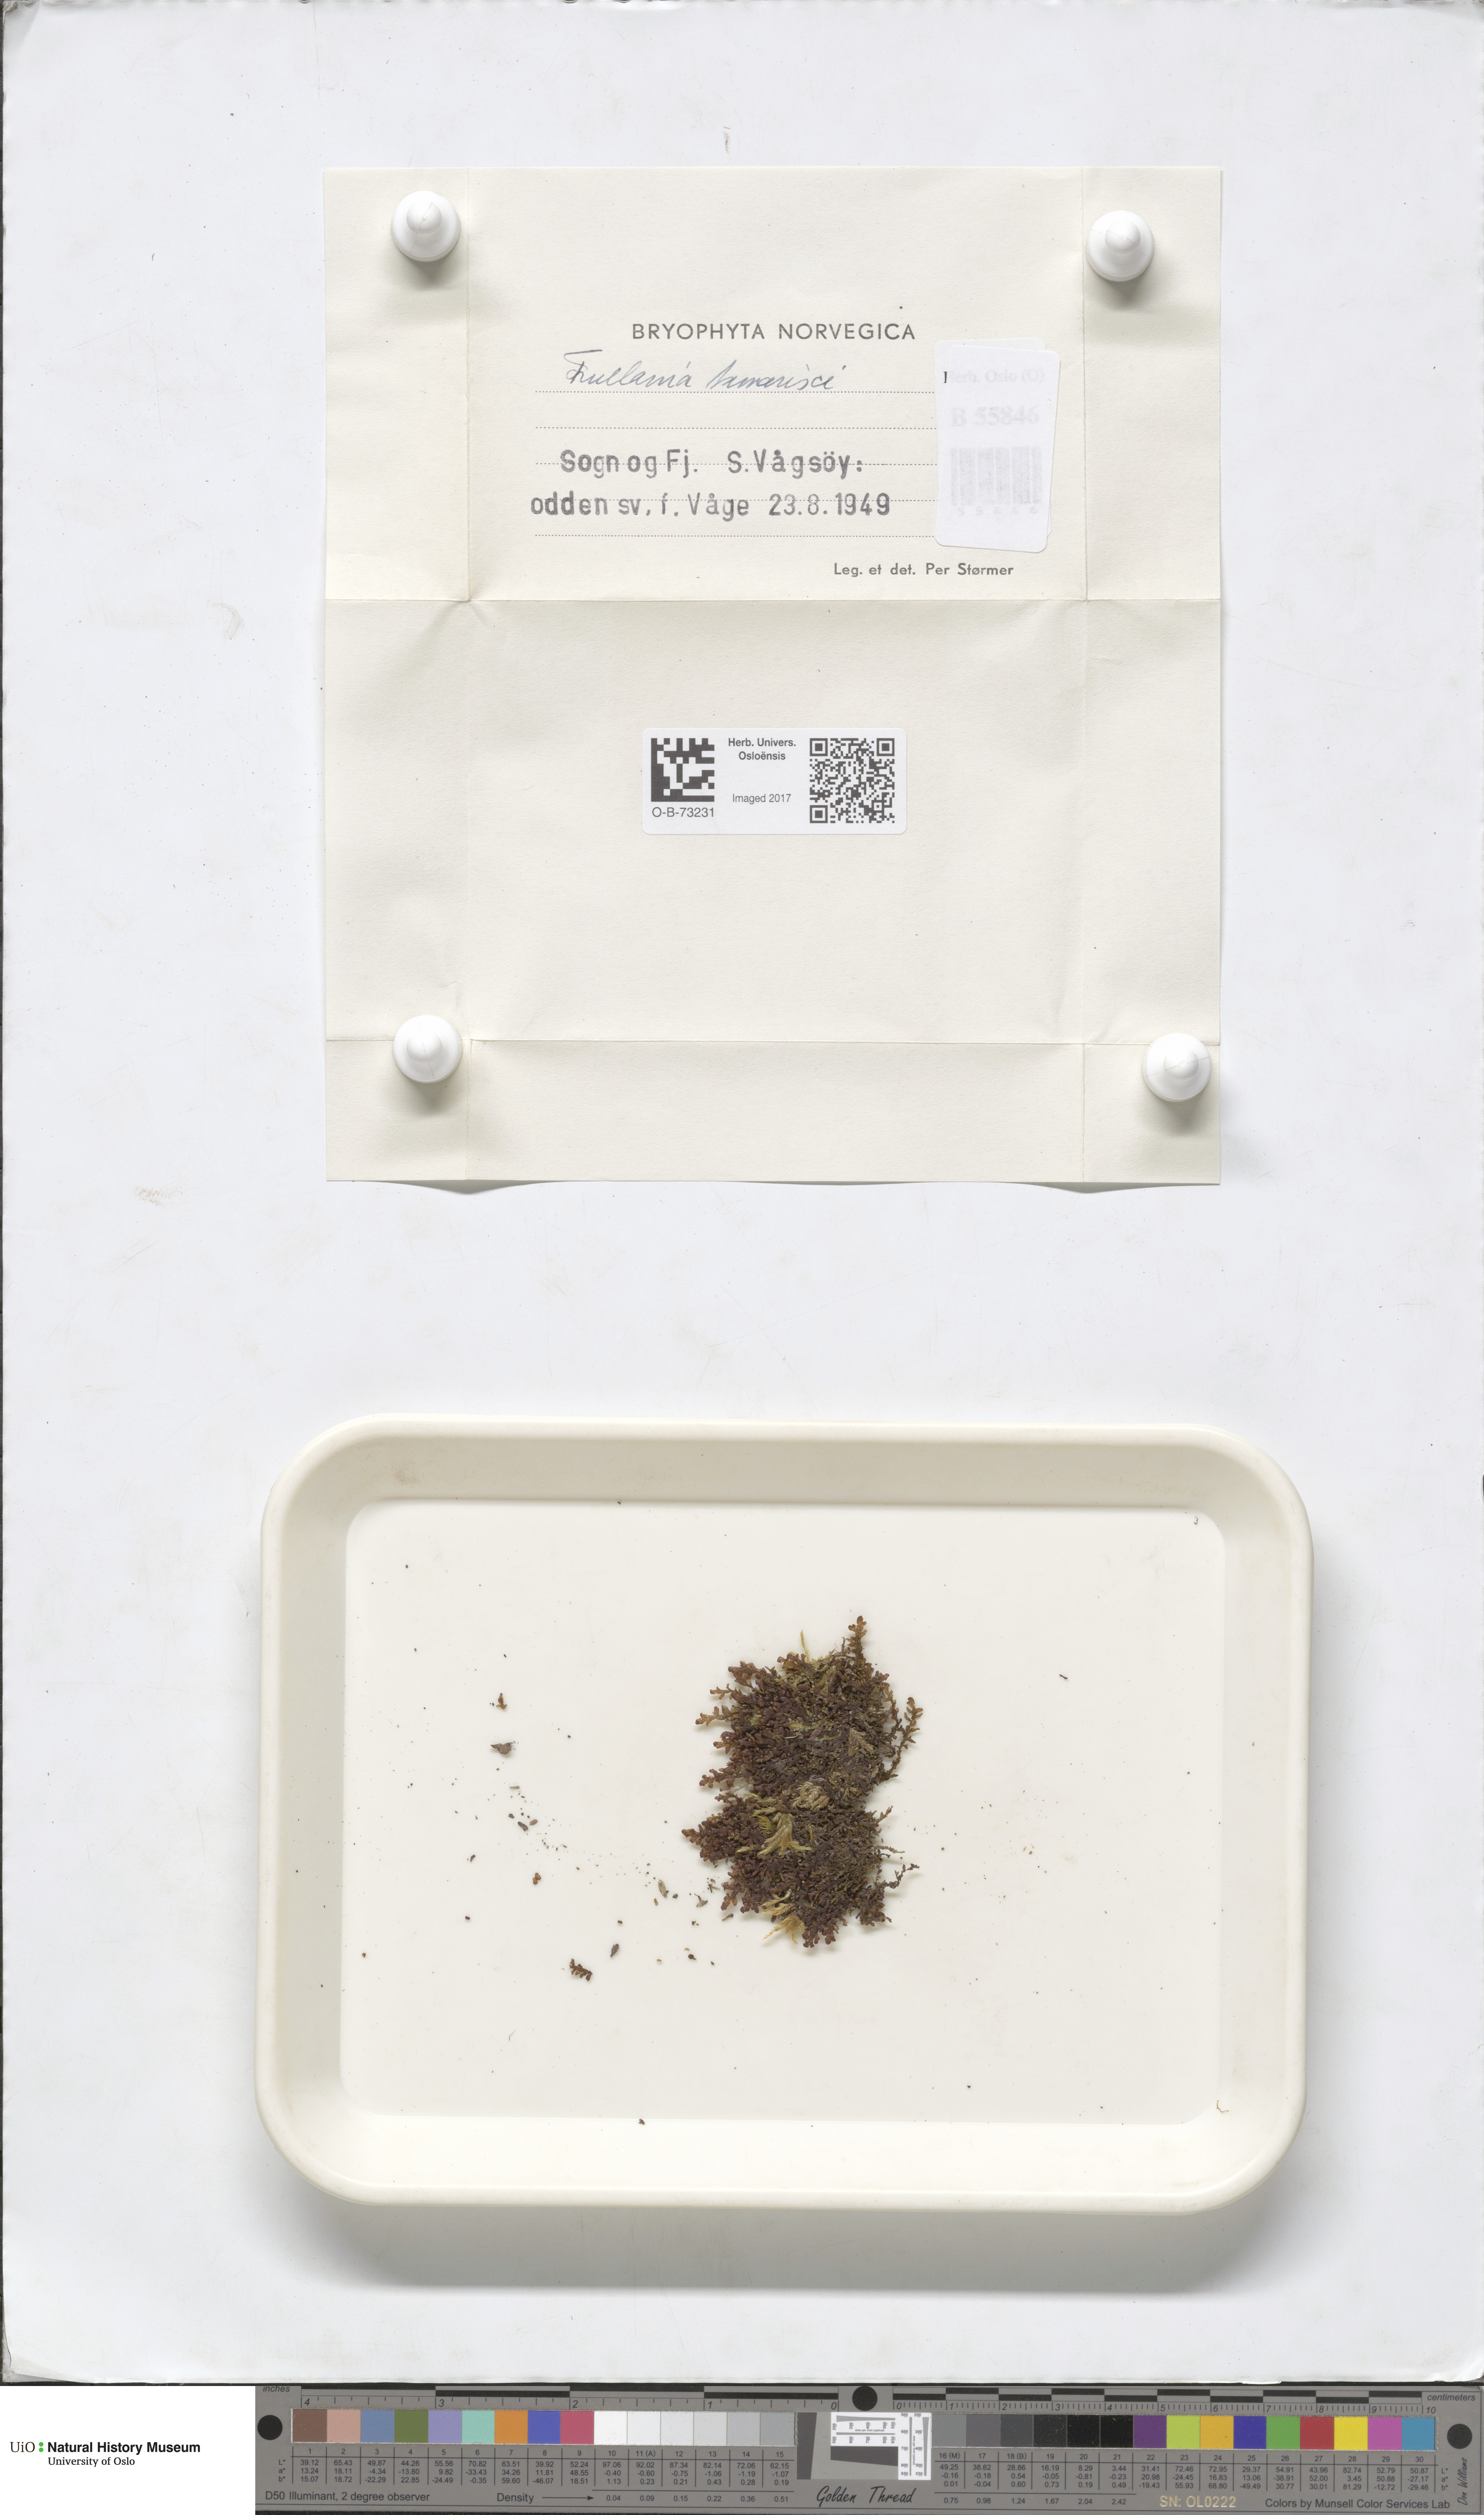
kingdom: Plantae
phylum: Marchantiophyta
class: Jungermanniopsida
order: Porellales
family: Frullaniaceae
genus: Frullania
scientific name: Frullania tamarisci
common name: Tamarisk scalewort
